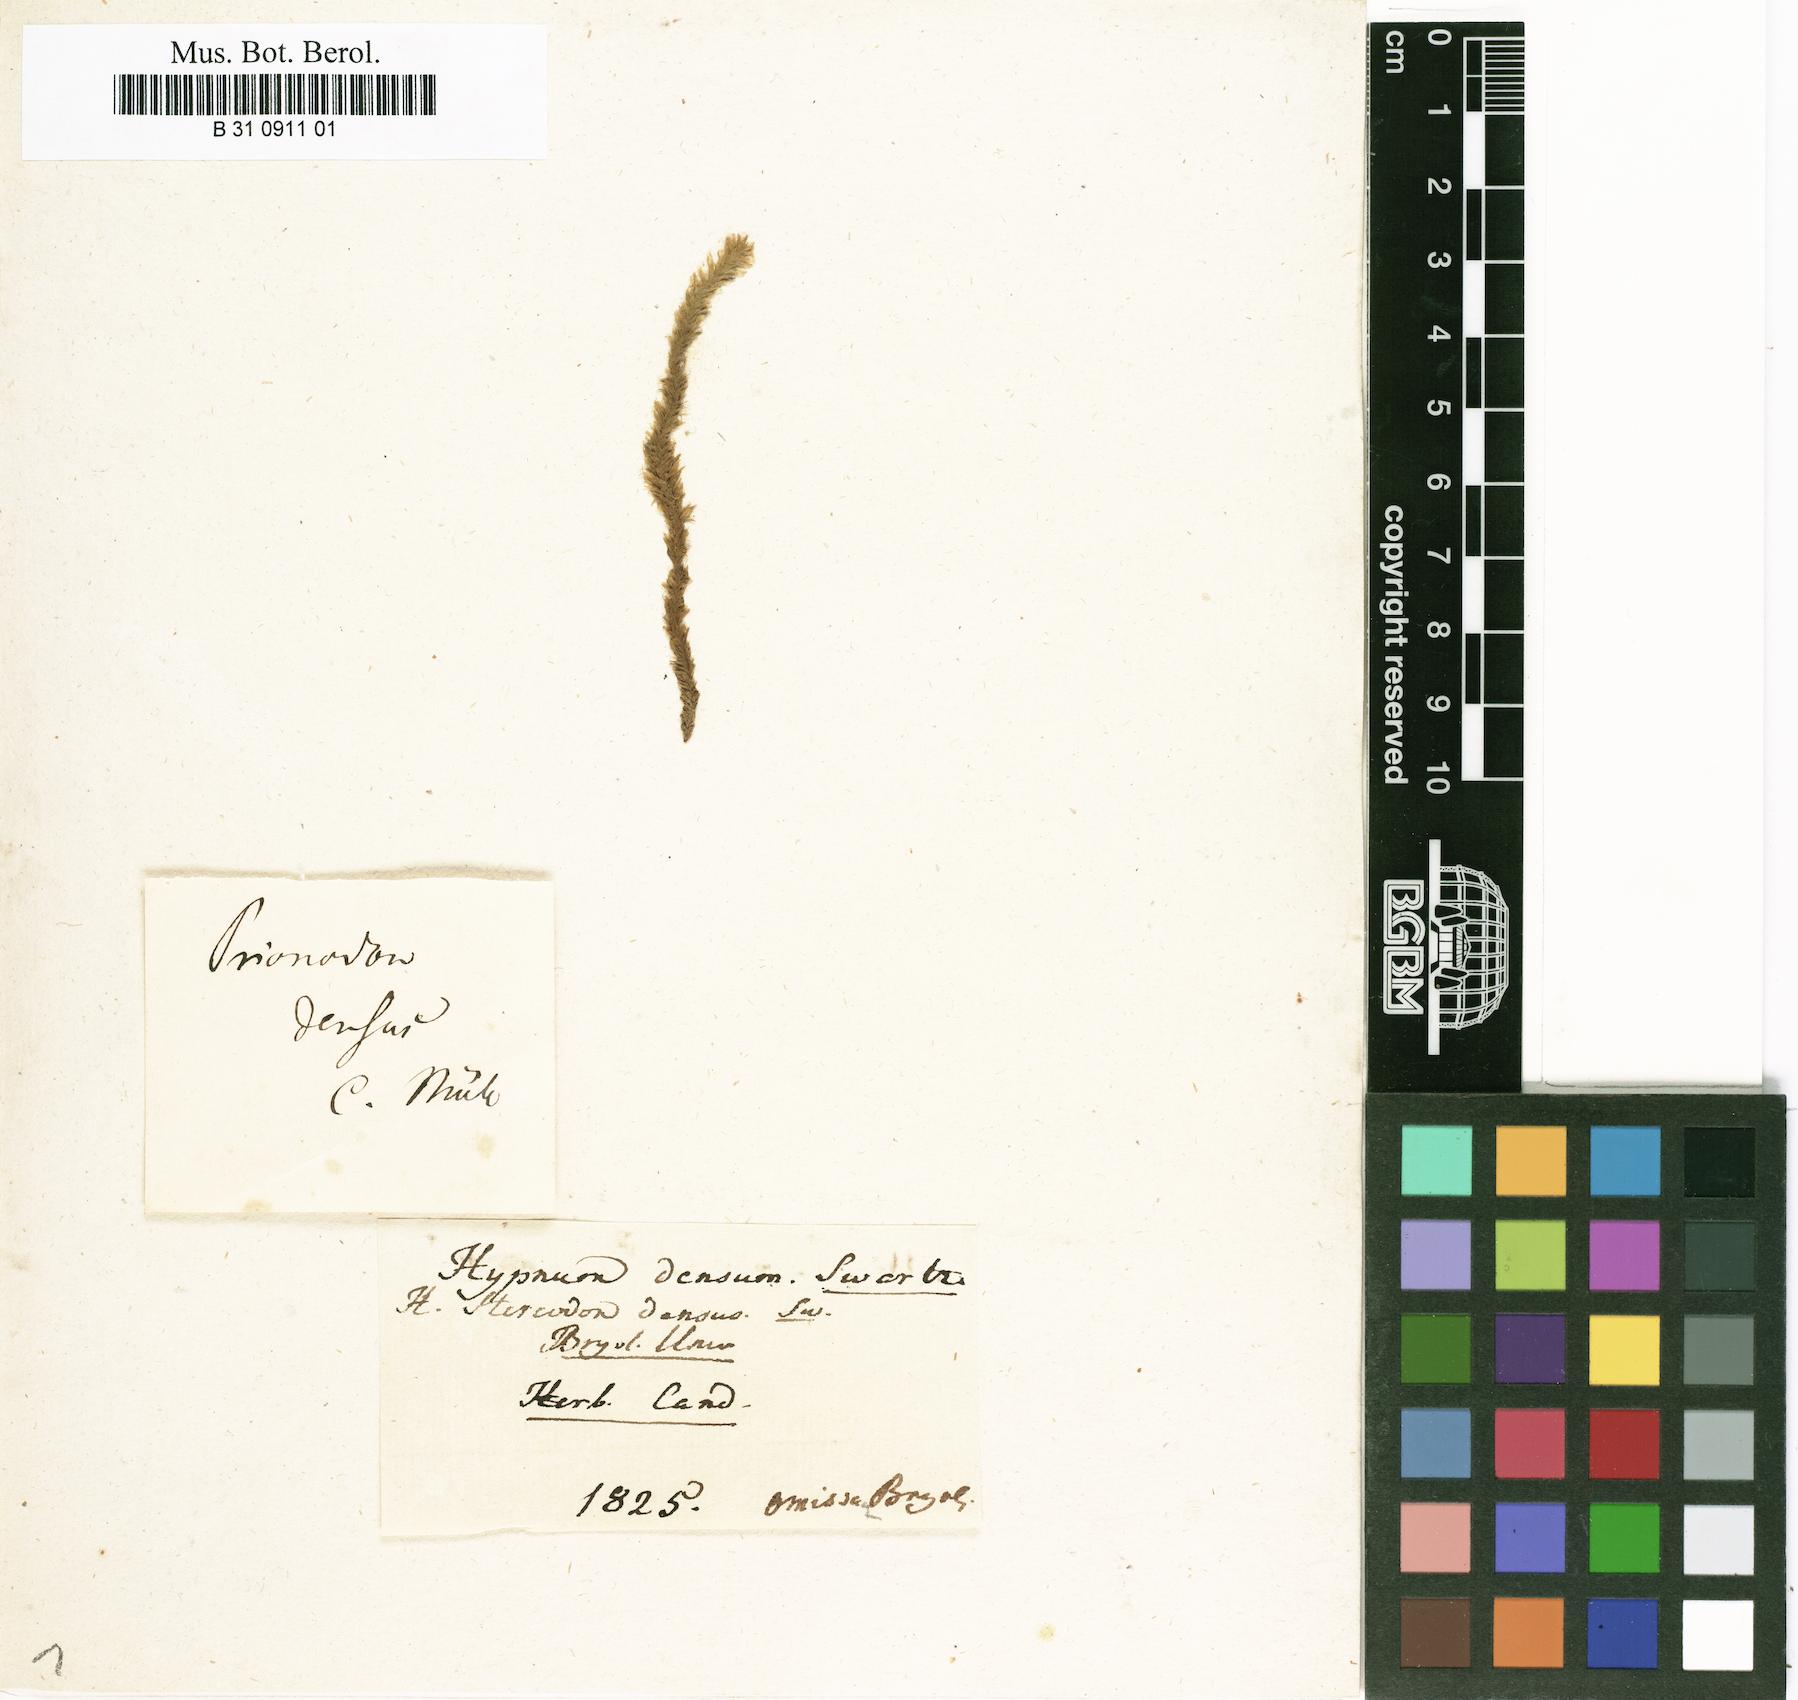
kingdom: Plantae
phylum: Bryophyta
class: Bryopsida
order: Hypnales
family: Stereodontaceae
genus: Stereodon
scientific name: Stereodon
